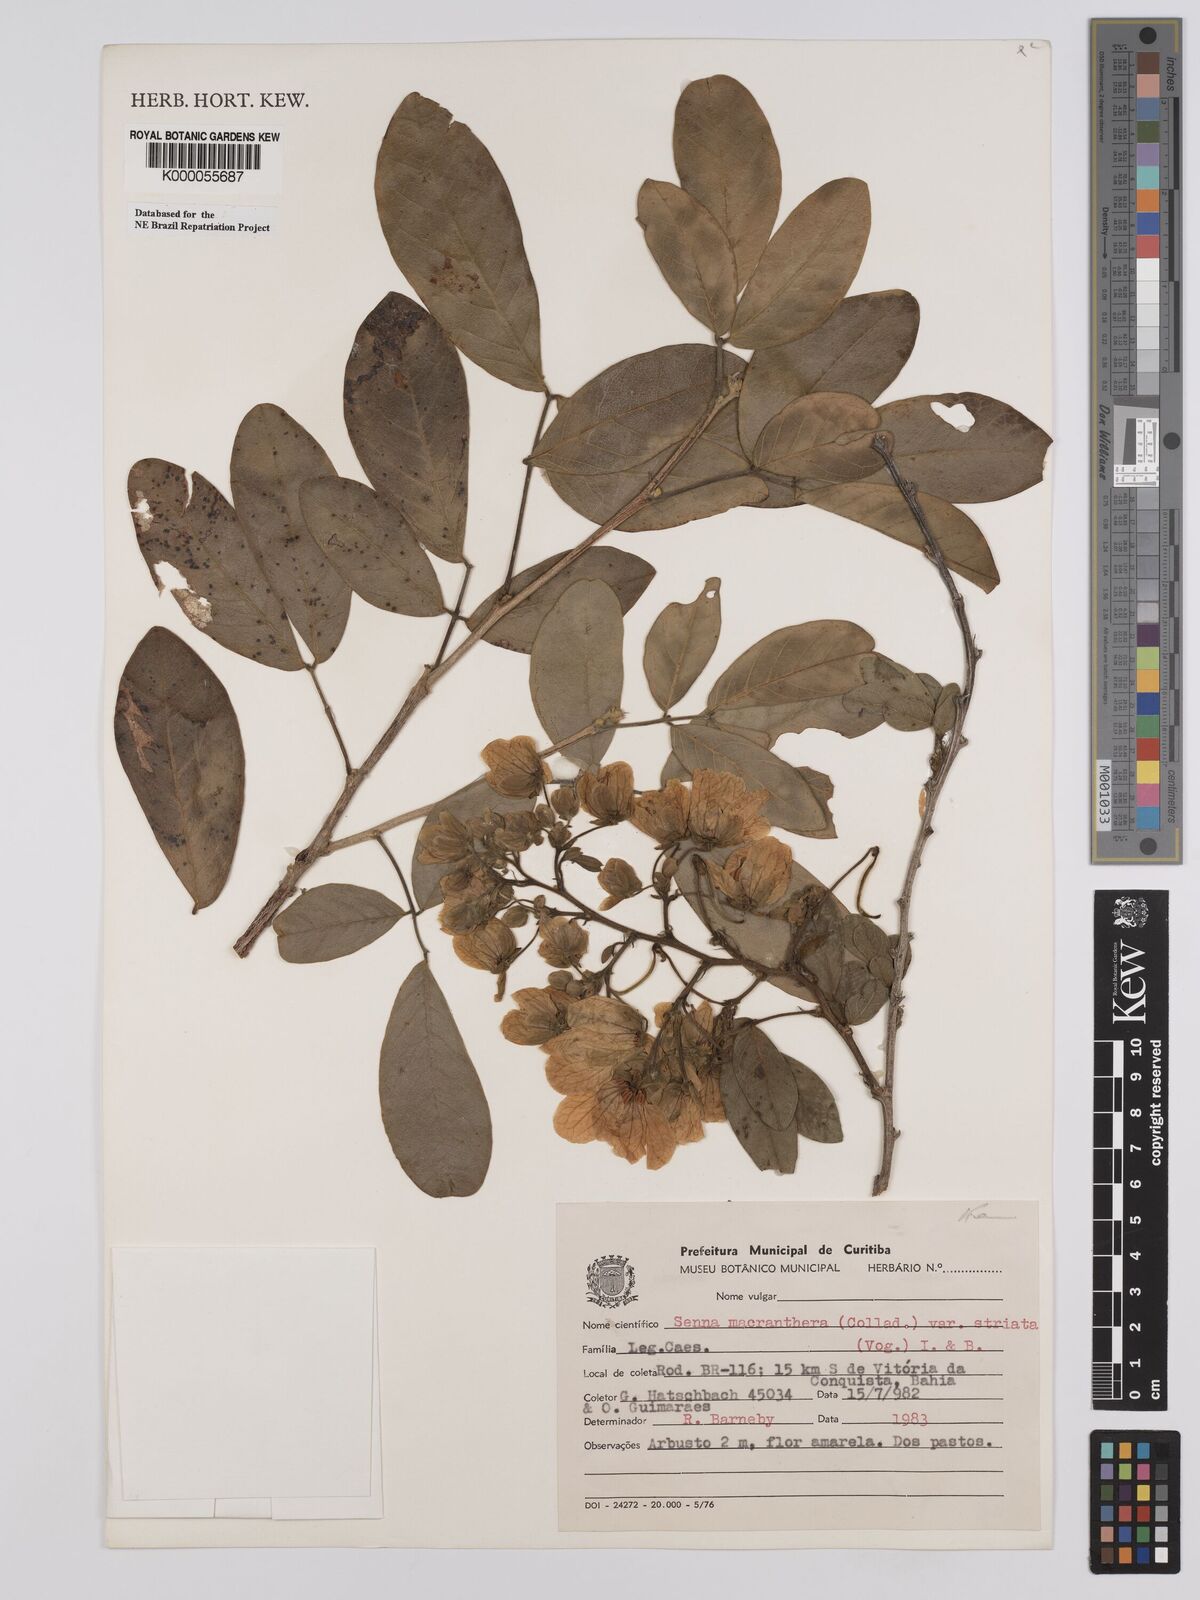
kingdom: Plantae
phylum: Tracheophyta
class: Magnoliopsida
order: Fabales
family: Fabaceae
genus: Senna
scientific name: Senna macranthera
